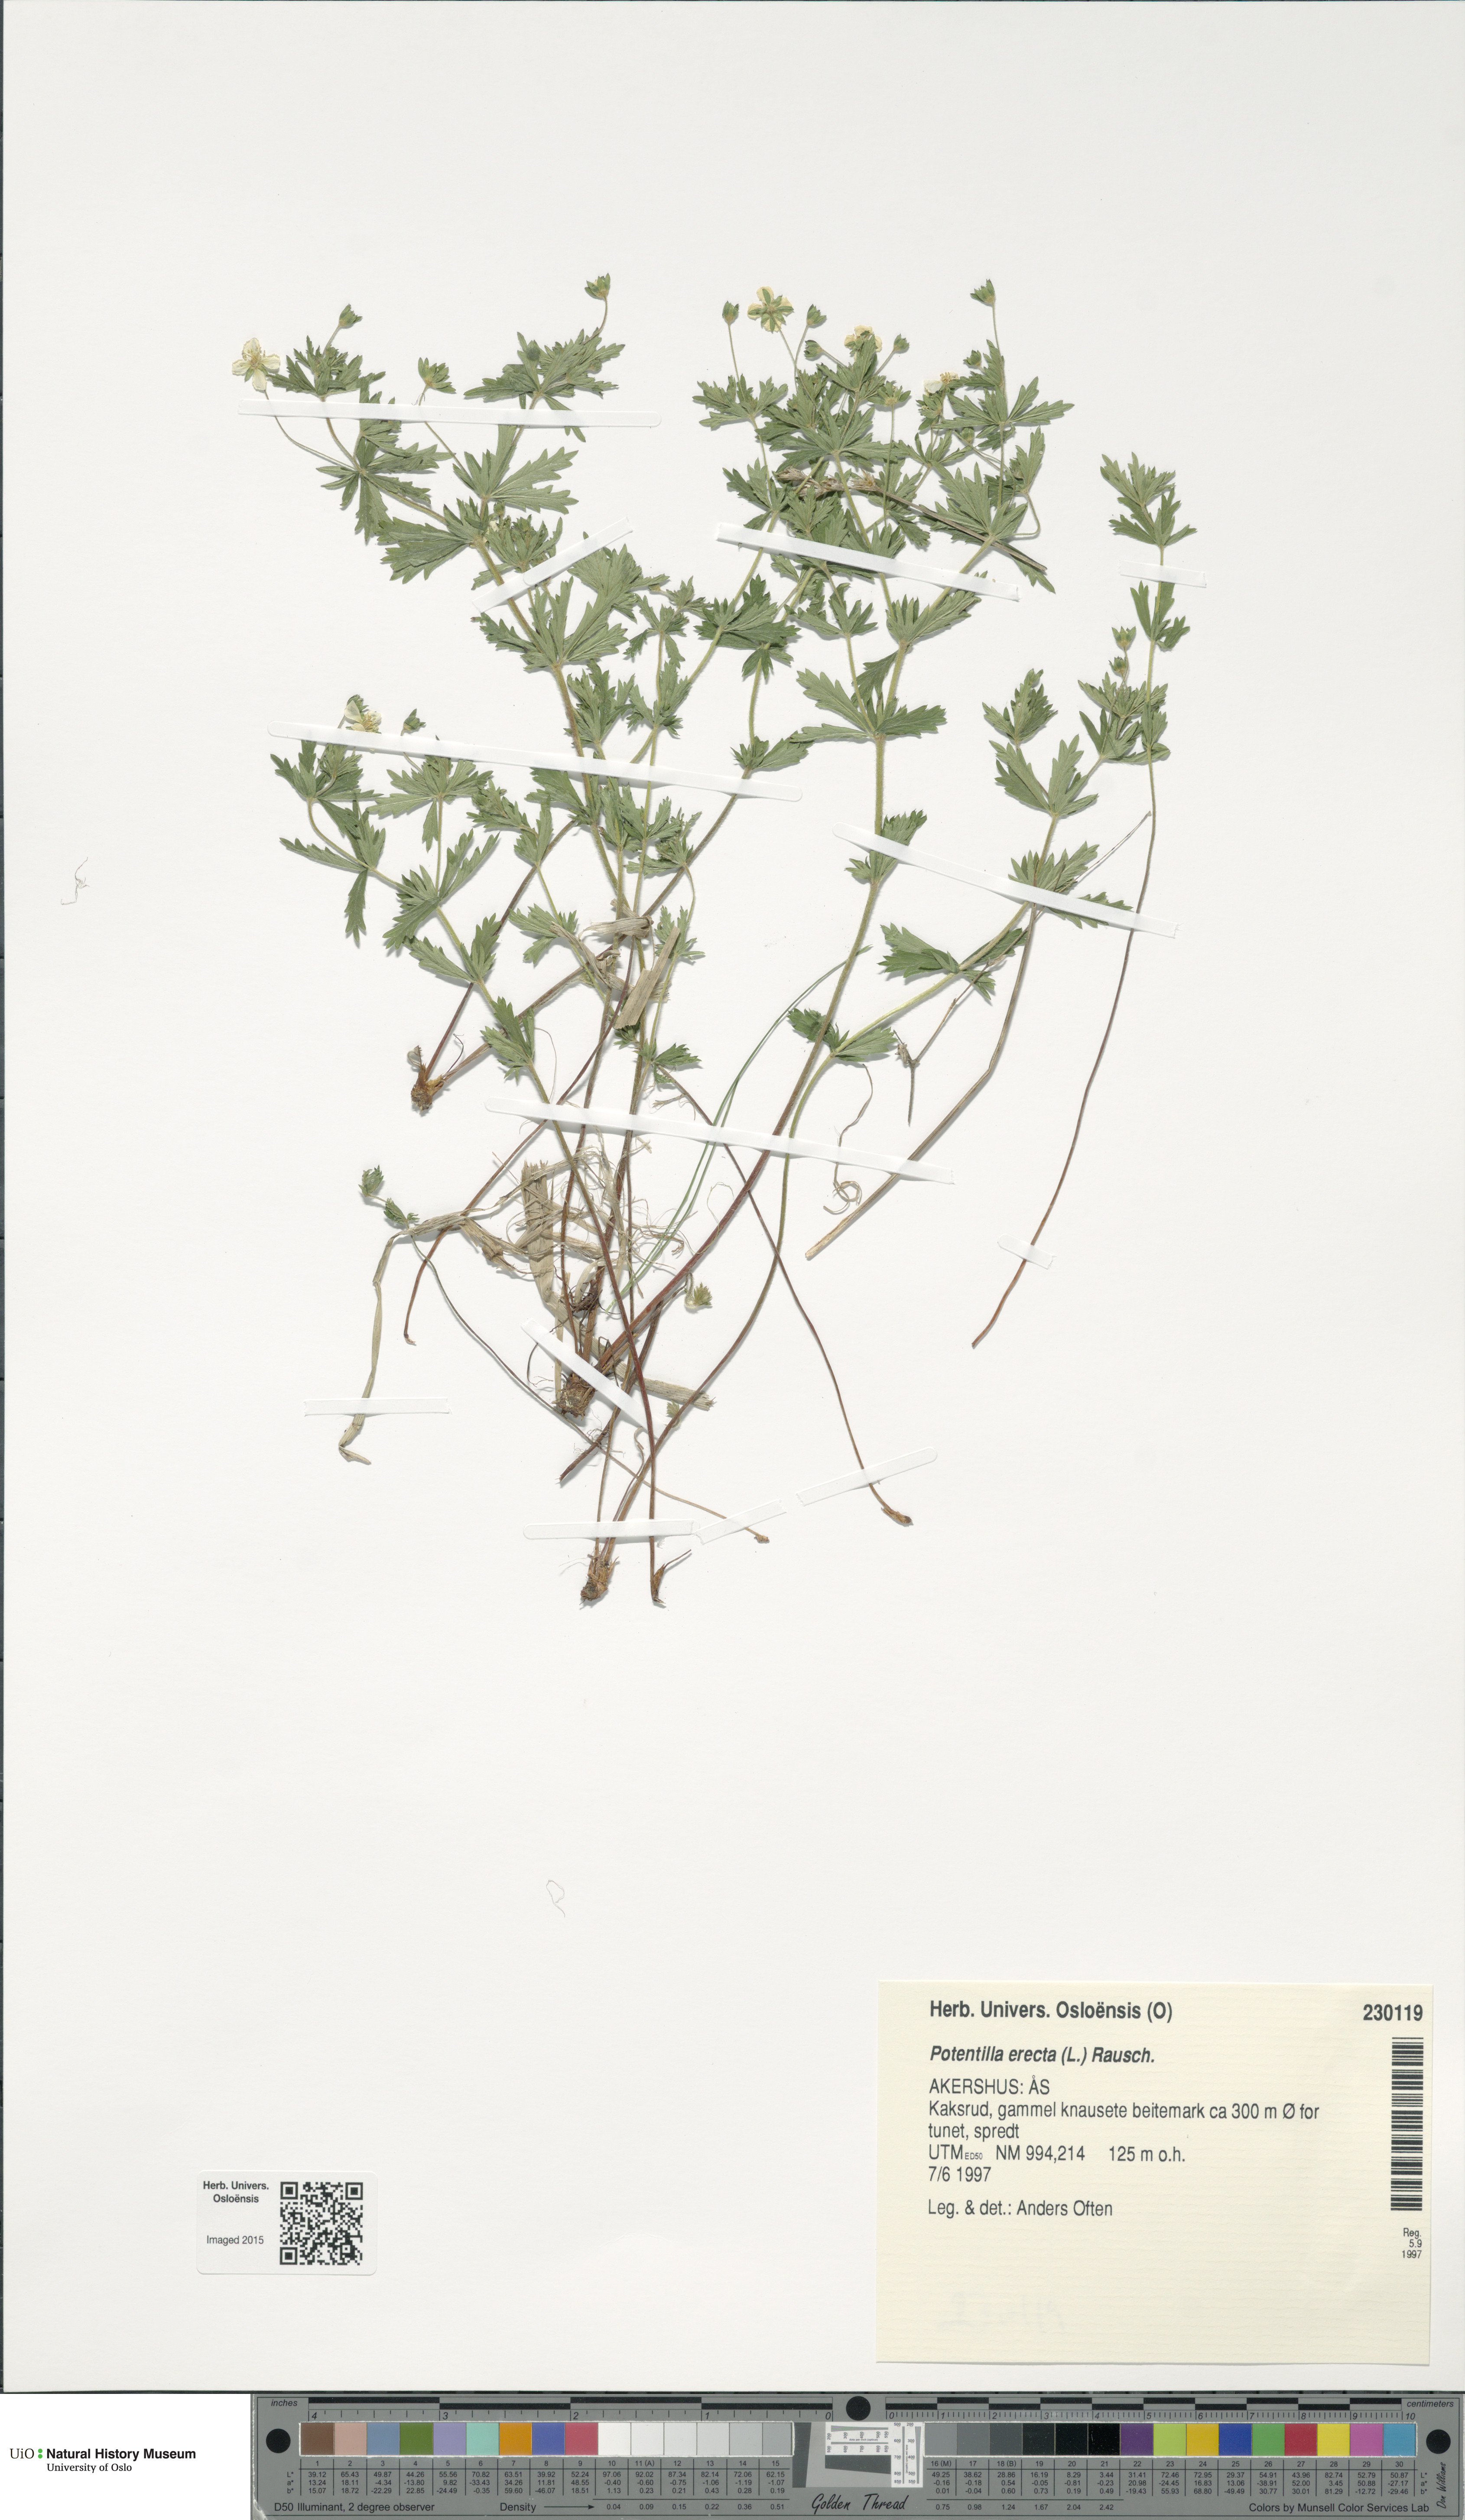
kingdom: Plantae
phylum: Tracheophyta
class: Magnoliopsida
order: Rosales
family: Rosaceae
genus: Potentilla
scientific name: Potentilla erecta
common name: Tormentil
